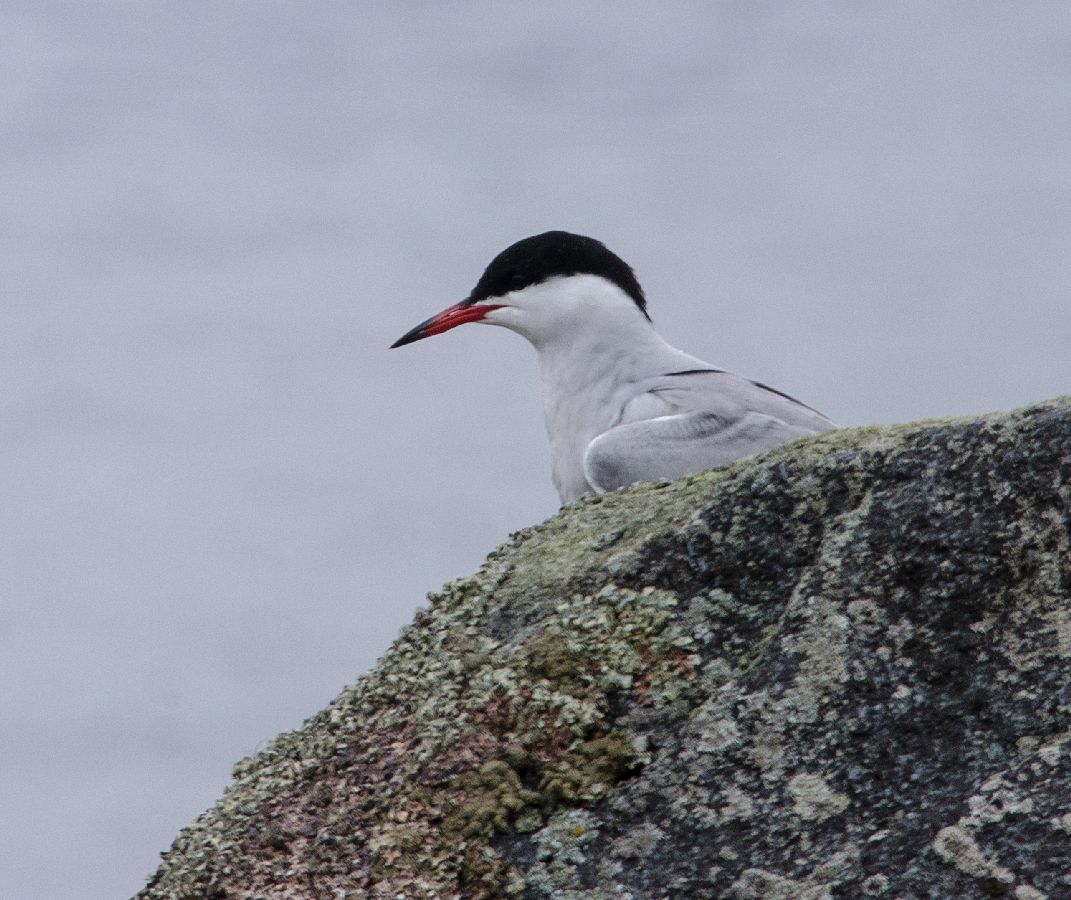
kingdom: Animalia
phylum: Chordata
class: Aves
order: Charadriiformes
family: Laridae
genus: Sterna
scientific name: Sterna hirundo
